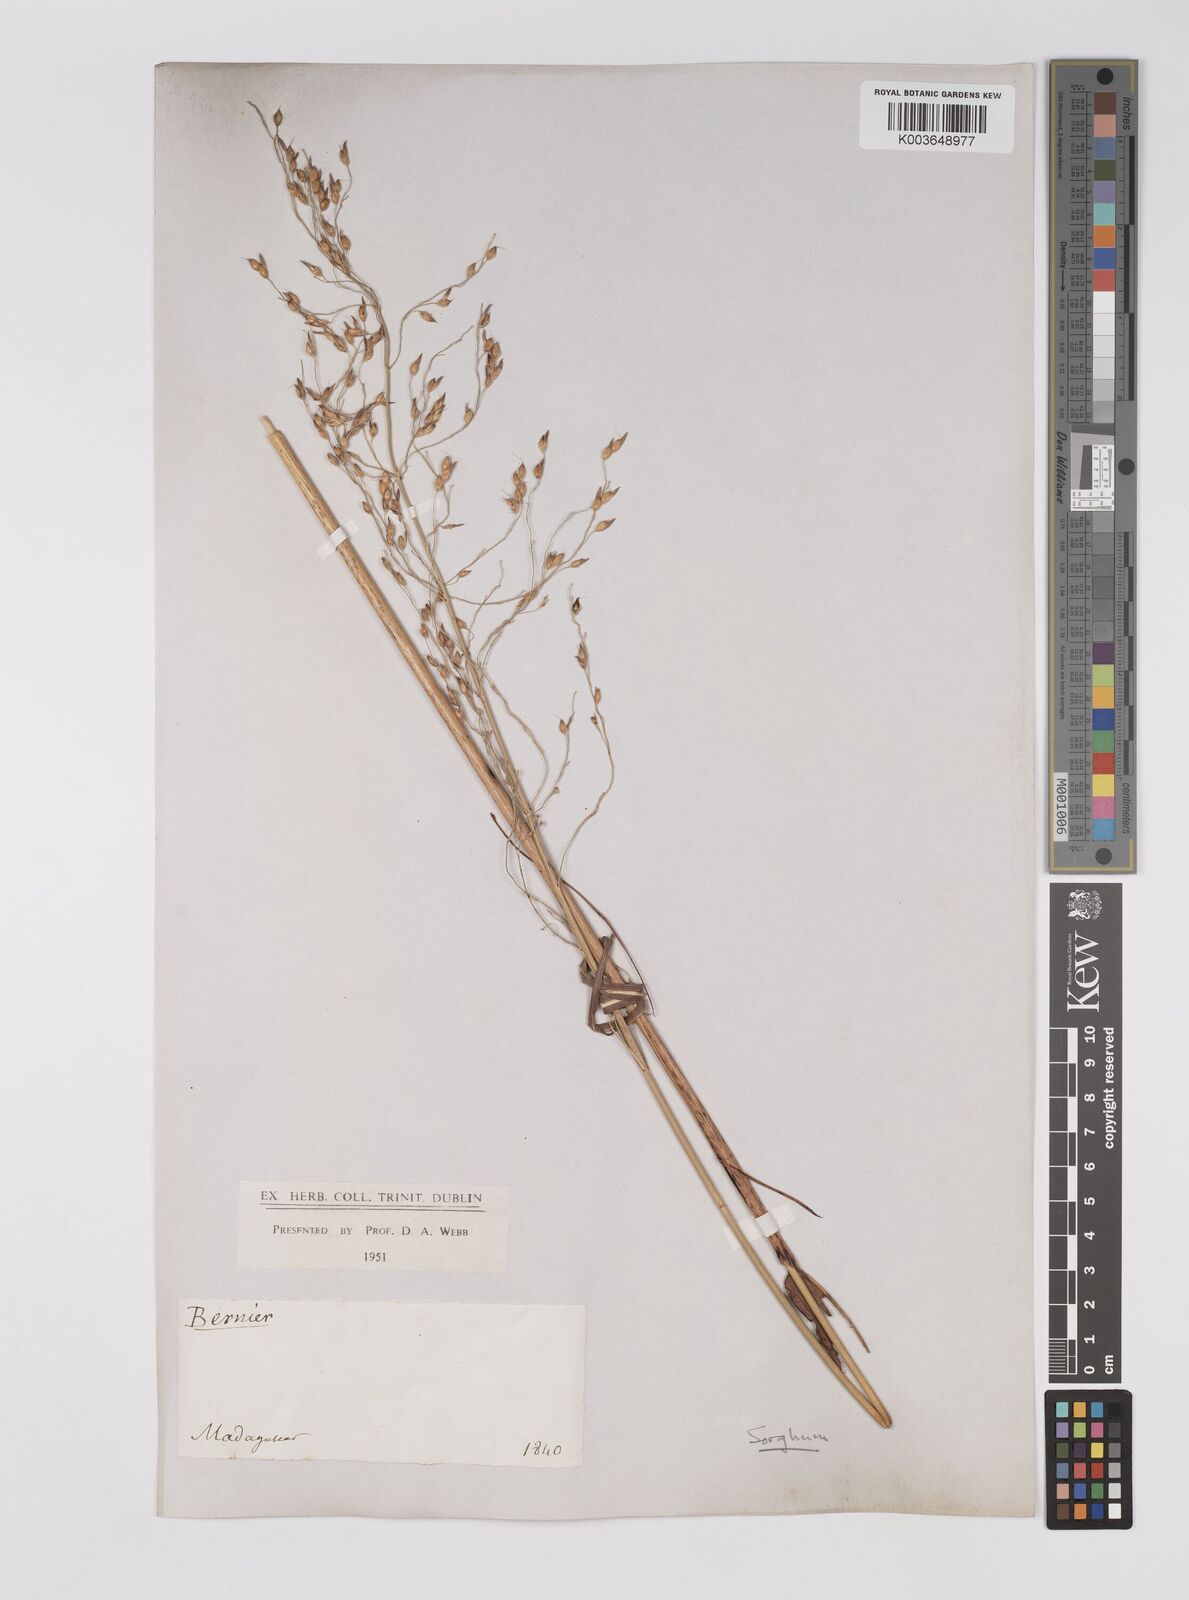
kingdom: Plantae
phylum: Tracheophyta
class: Liliopsida
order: Poales
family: Poaceae
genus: Sorghum
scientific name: Sorghum arundinaceum
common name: Sorghum
